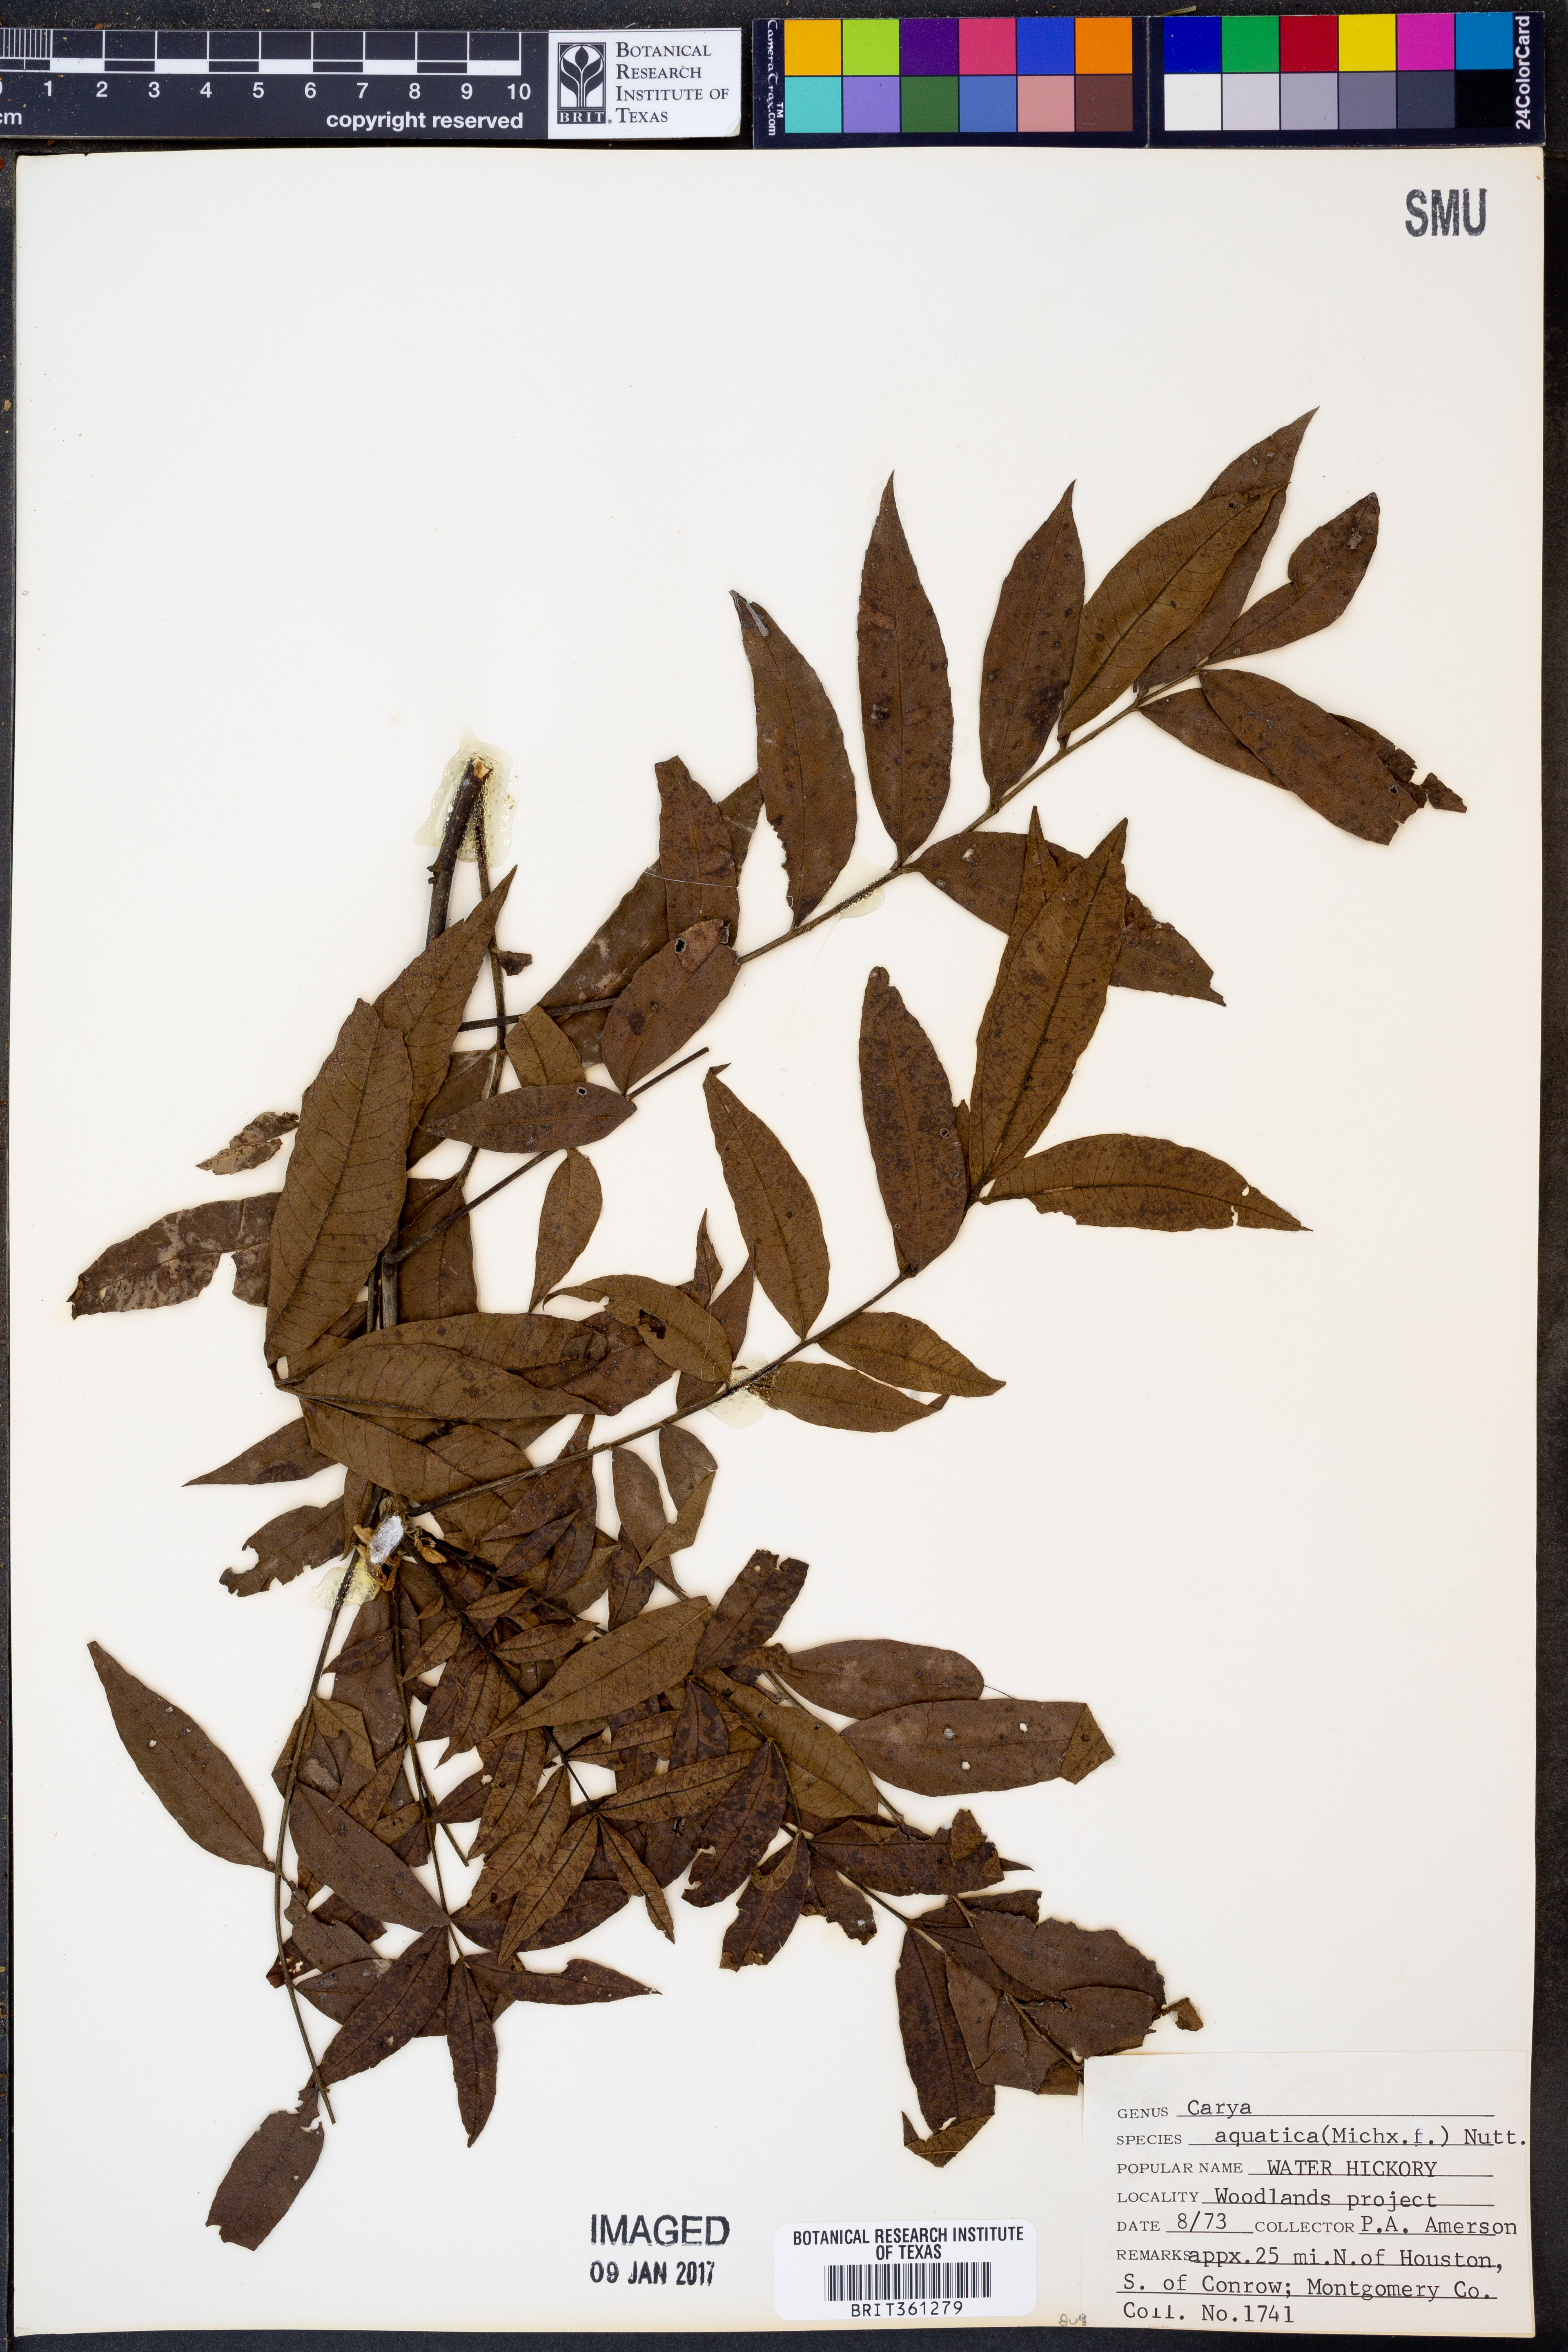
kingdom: Plantae
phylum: Tracheophyta
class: Magnoliopsida
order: Fagales
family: Juglandaceae
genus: Carya
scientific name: Carya aquatica
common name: Water hickory
